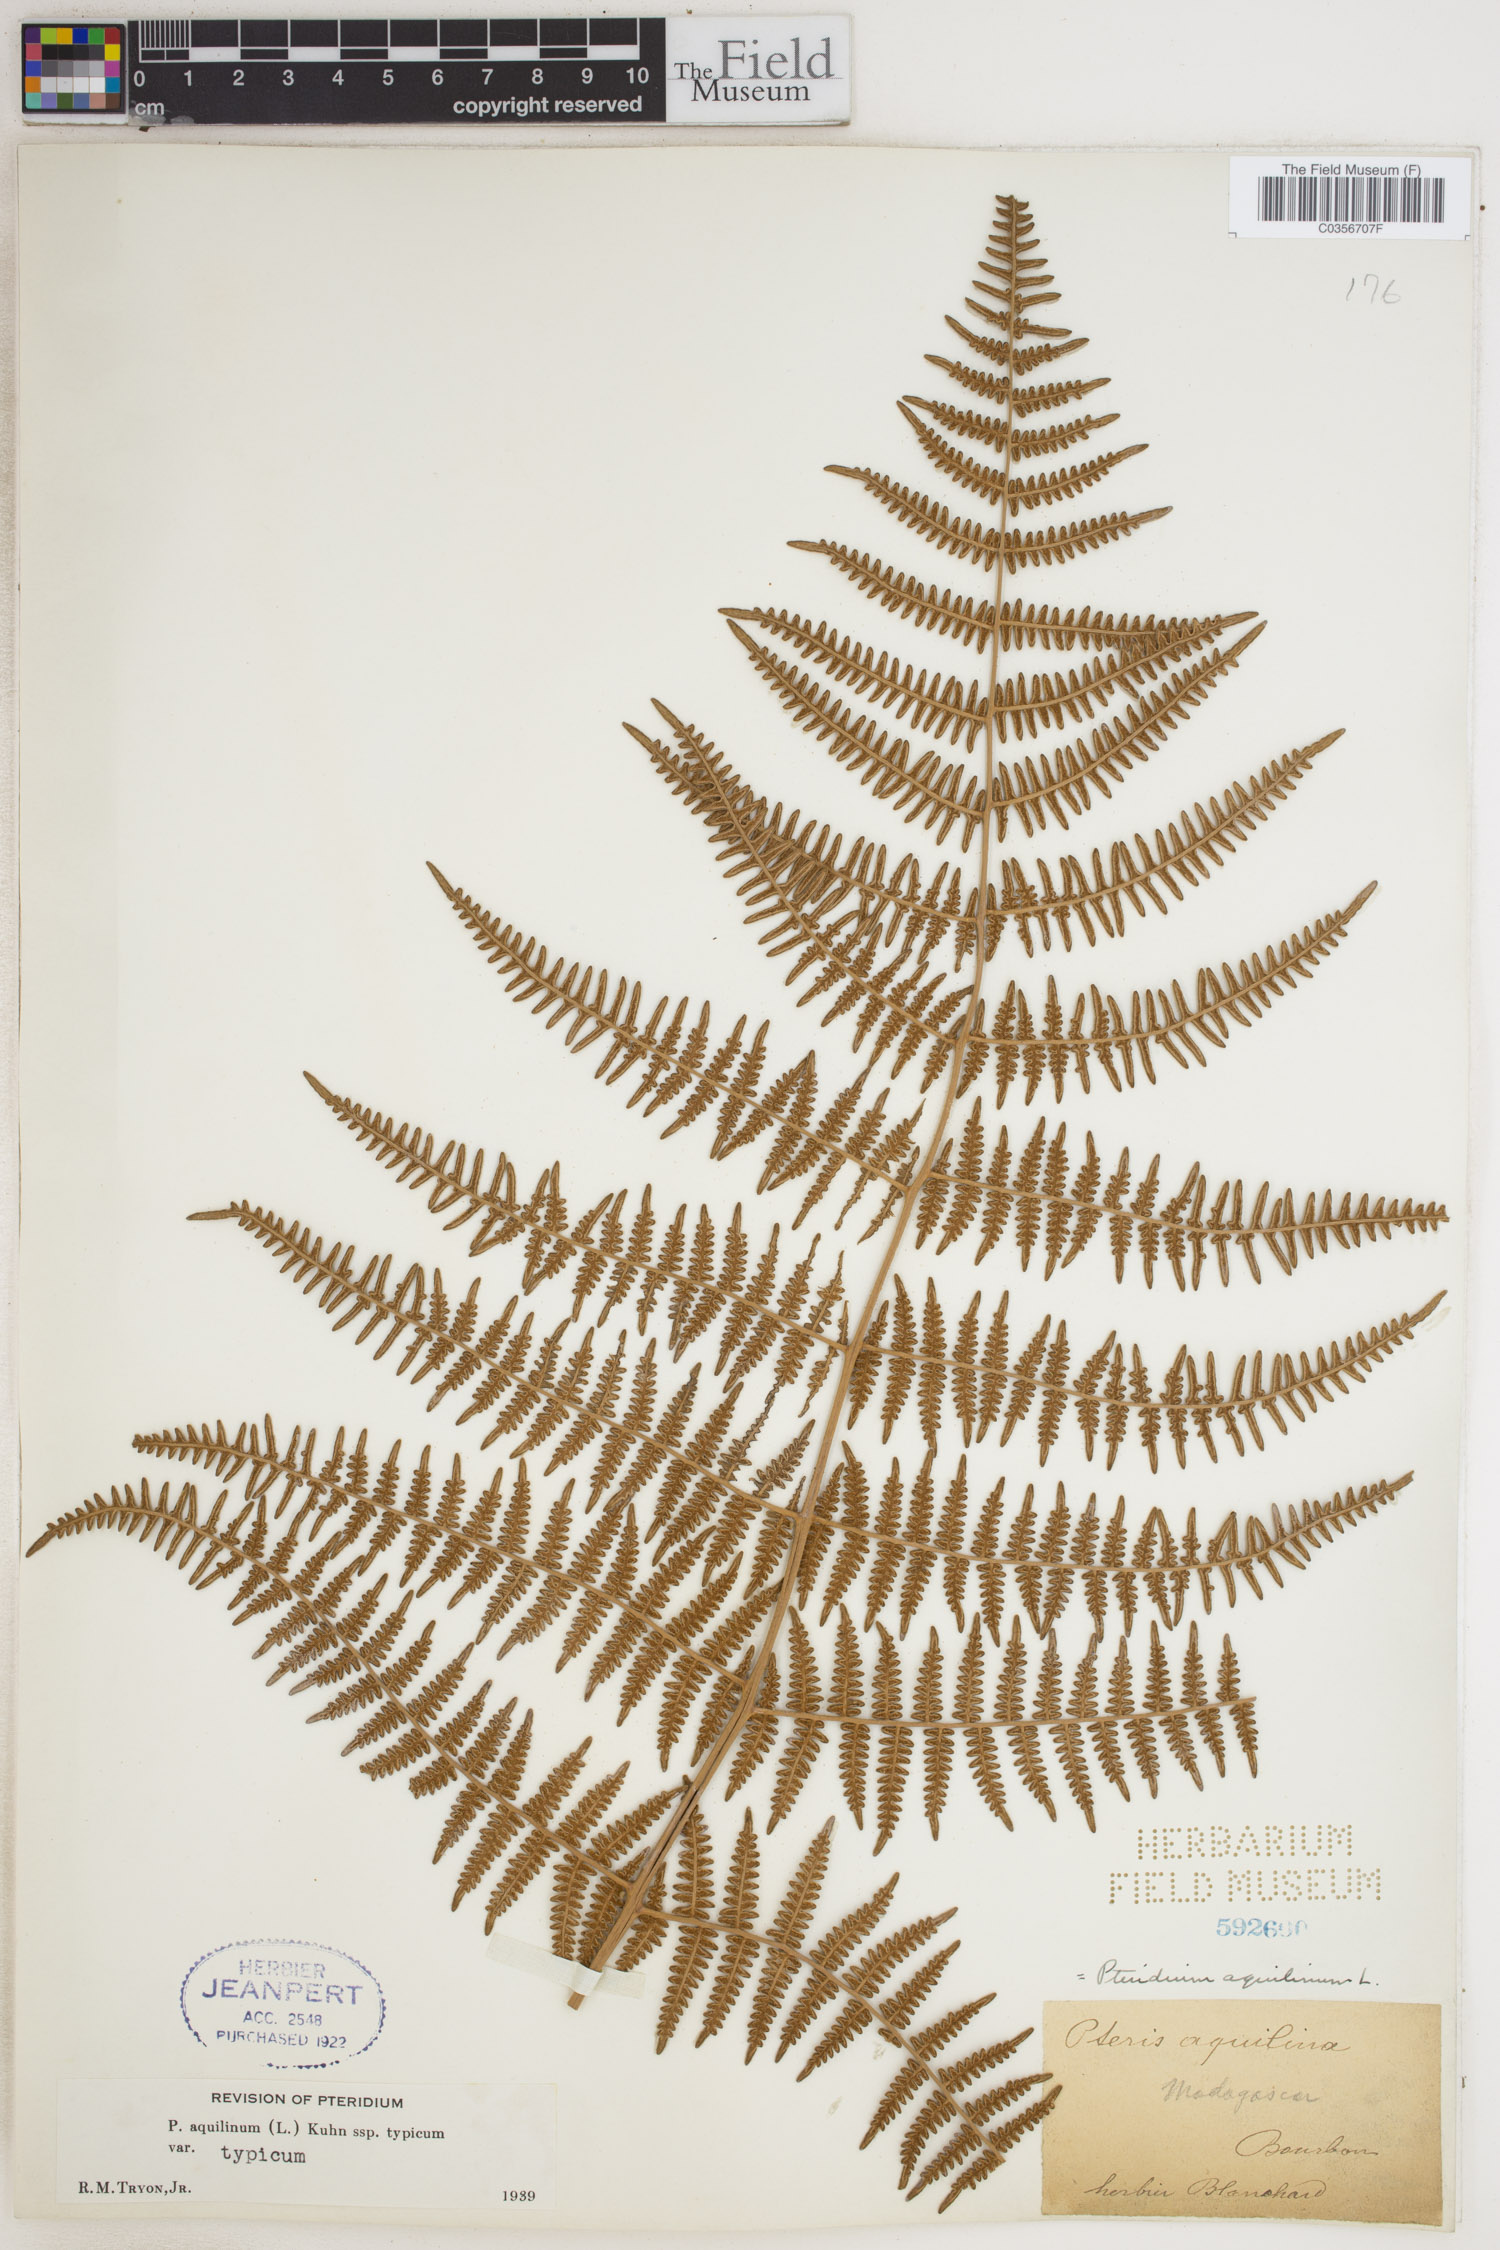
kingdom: Plantae
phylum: Tracheophyta
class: Polypodiopsida
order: Polypodiales
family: Dennstaedtiaceae
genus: Pteridium
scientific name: Pteridium aquilinum
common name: Bracken
